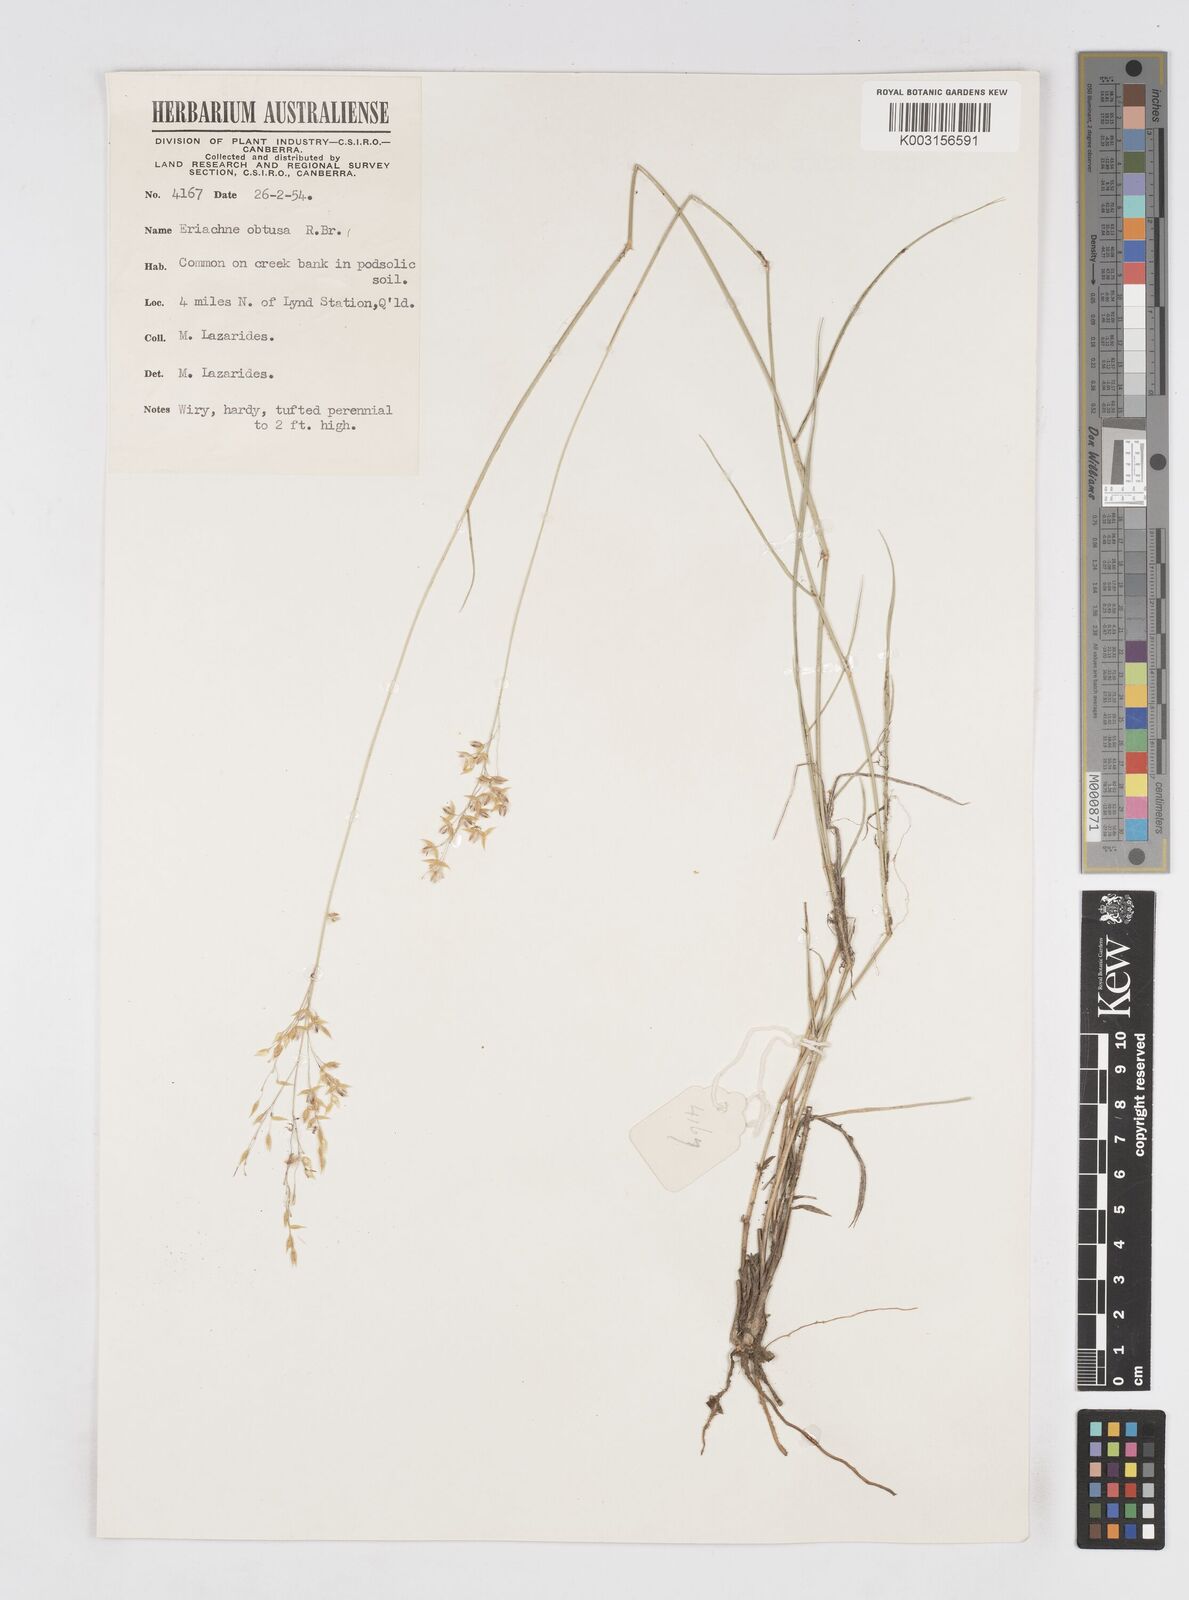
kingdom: Plantae
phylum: Tracheophyta
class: Liliopsida
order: Poales
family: Poaceae
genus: Eriachne
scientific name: Eriachne obtusa
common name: Northern wanderrie grass
